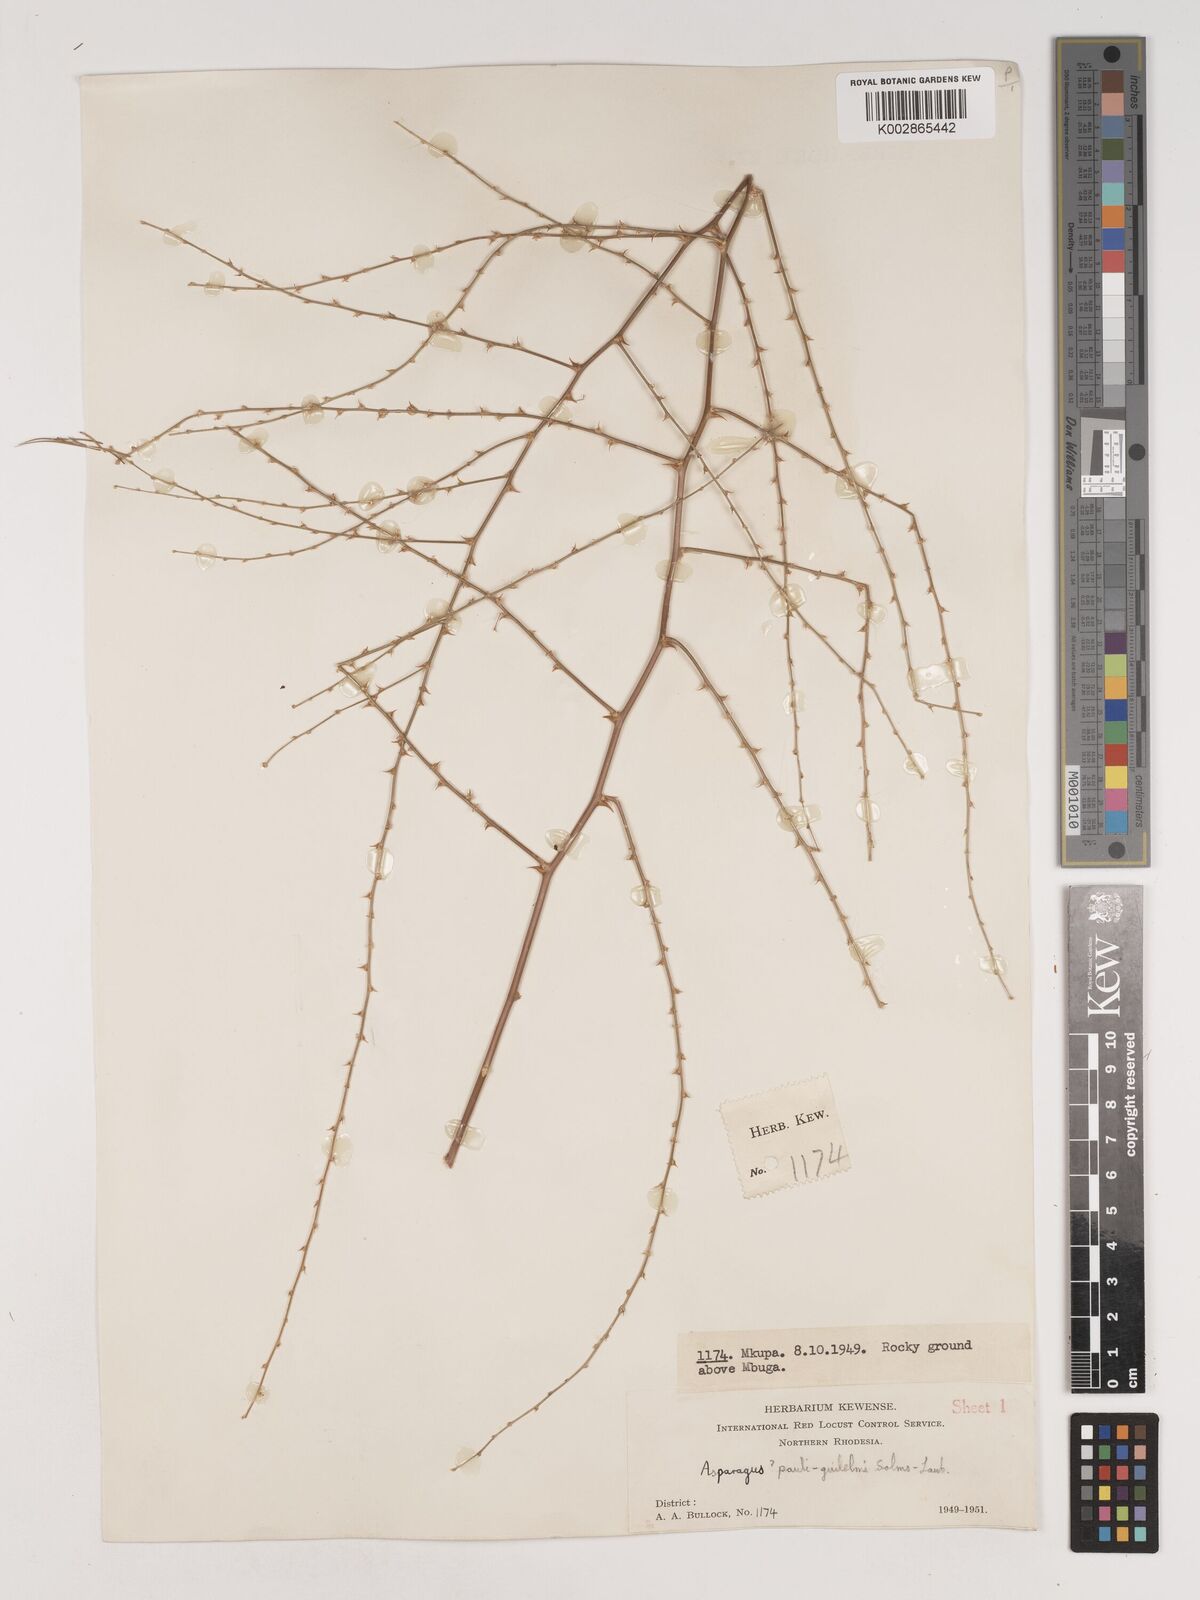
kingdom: Plantae
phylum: Tracheophyta
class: Liliopsida
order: Asparagales
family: Asparagaceae
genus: Asparagus
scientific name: Asparagus flagellaris
